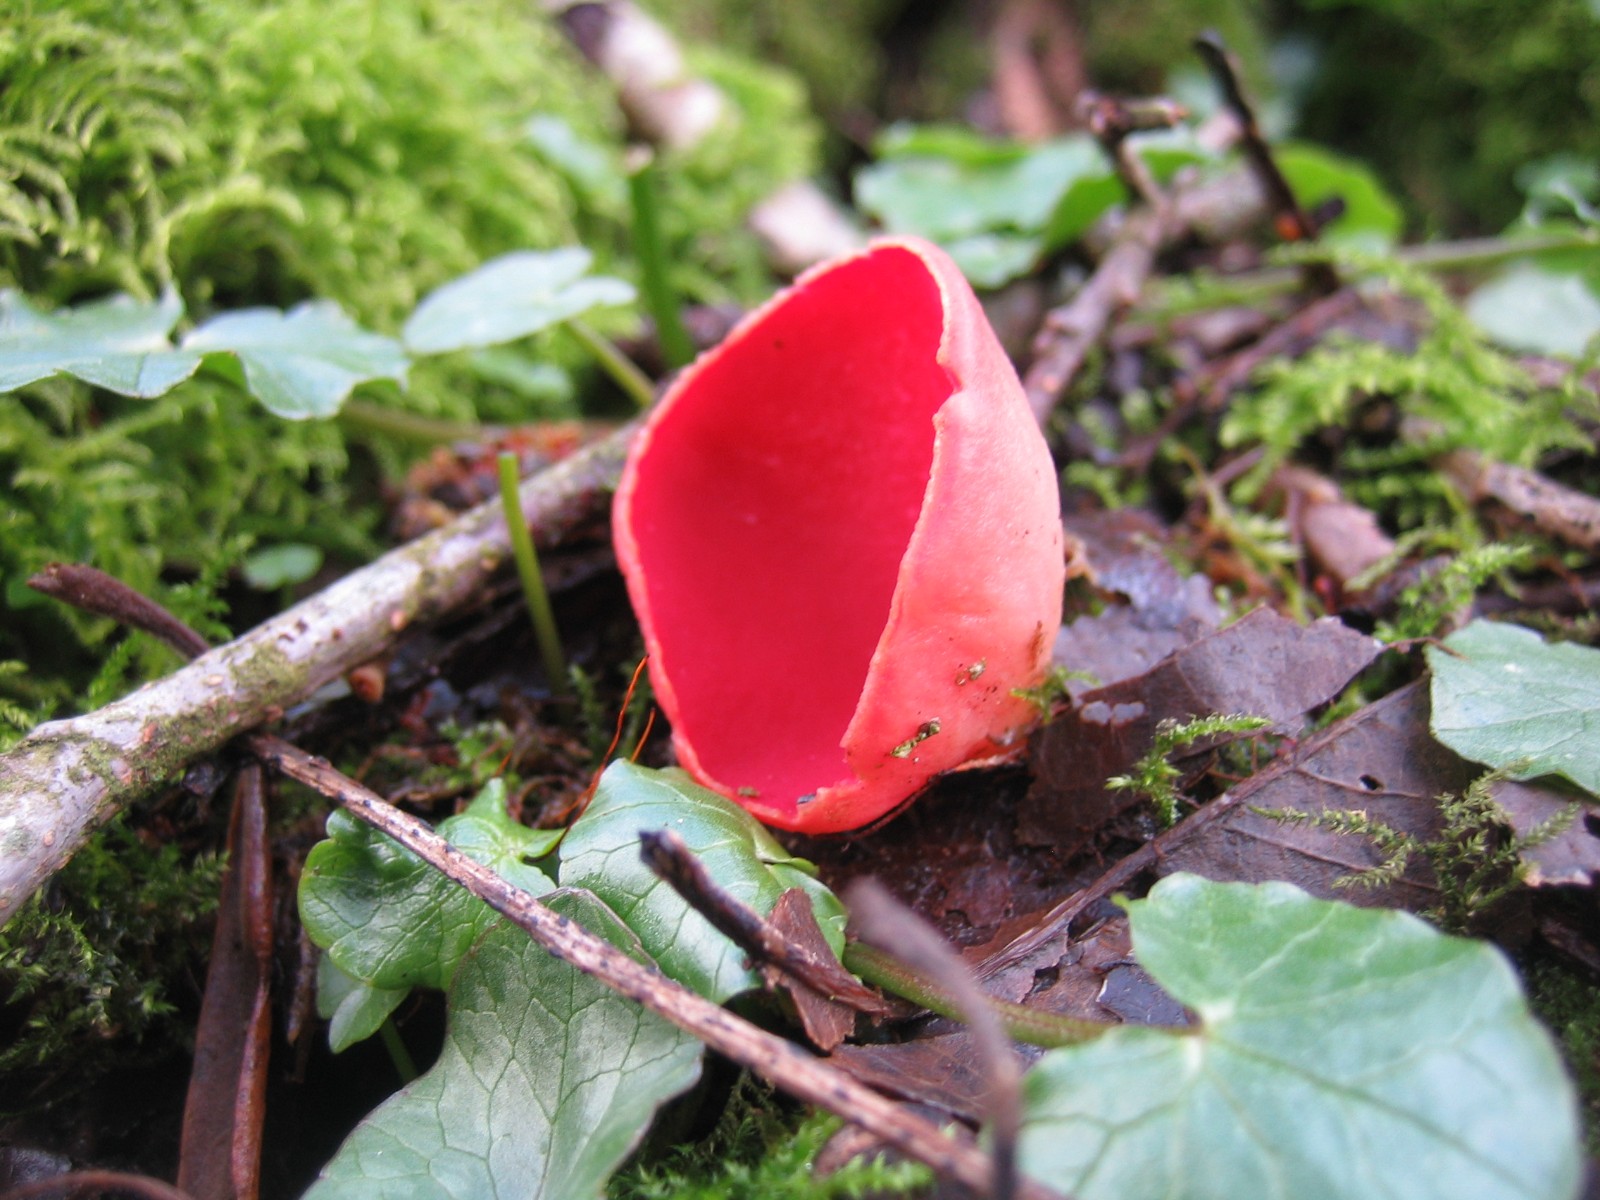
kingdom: Fungi
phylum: Ascomycota
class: Pezizomycetes
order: Pezizales
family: Sarcoscyphaceae
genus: Sarcoscypha
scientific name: Sarcoscypha austriaca
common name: krølhåret pragtbæger
